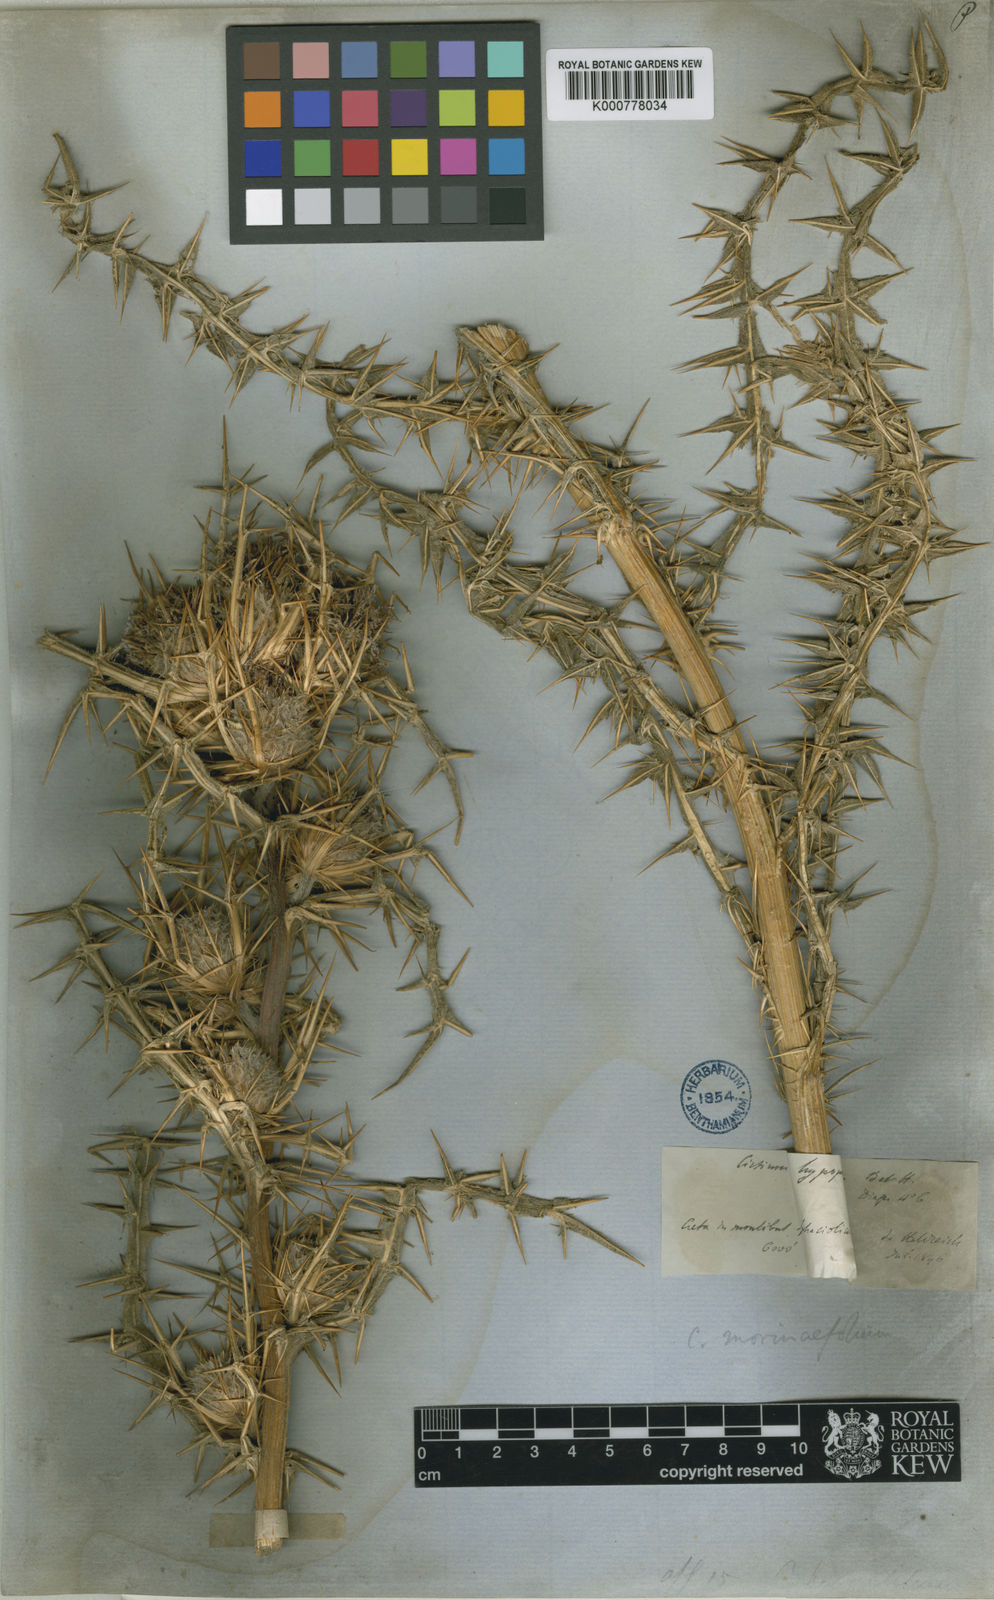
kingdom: Plantae
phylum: Tracheophyta
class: Magnoliopsida
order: Asterales
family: Asteraceae
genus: Lophiolepis
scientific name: Lophiolepis morinifolia
